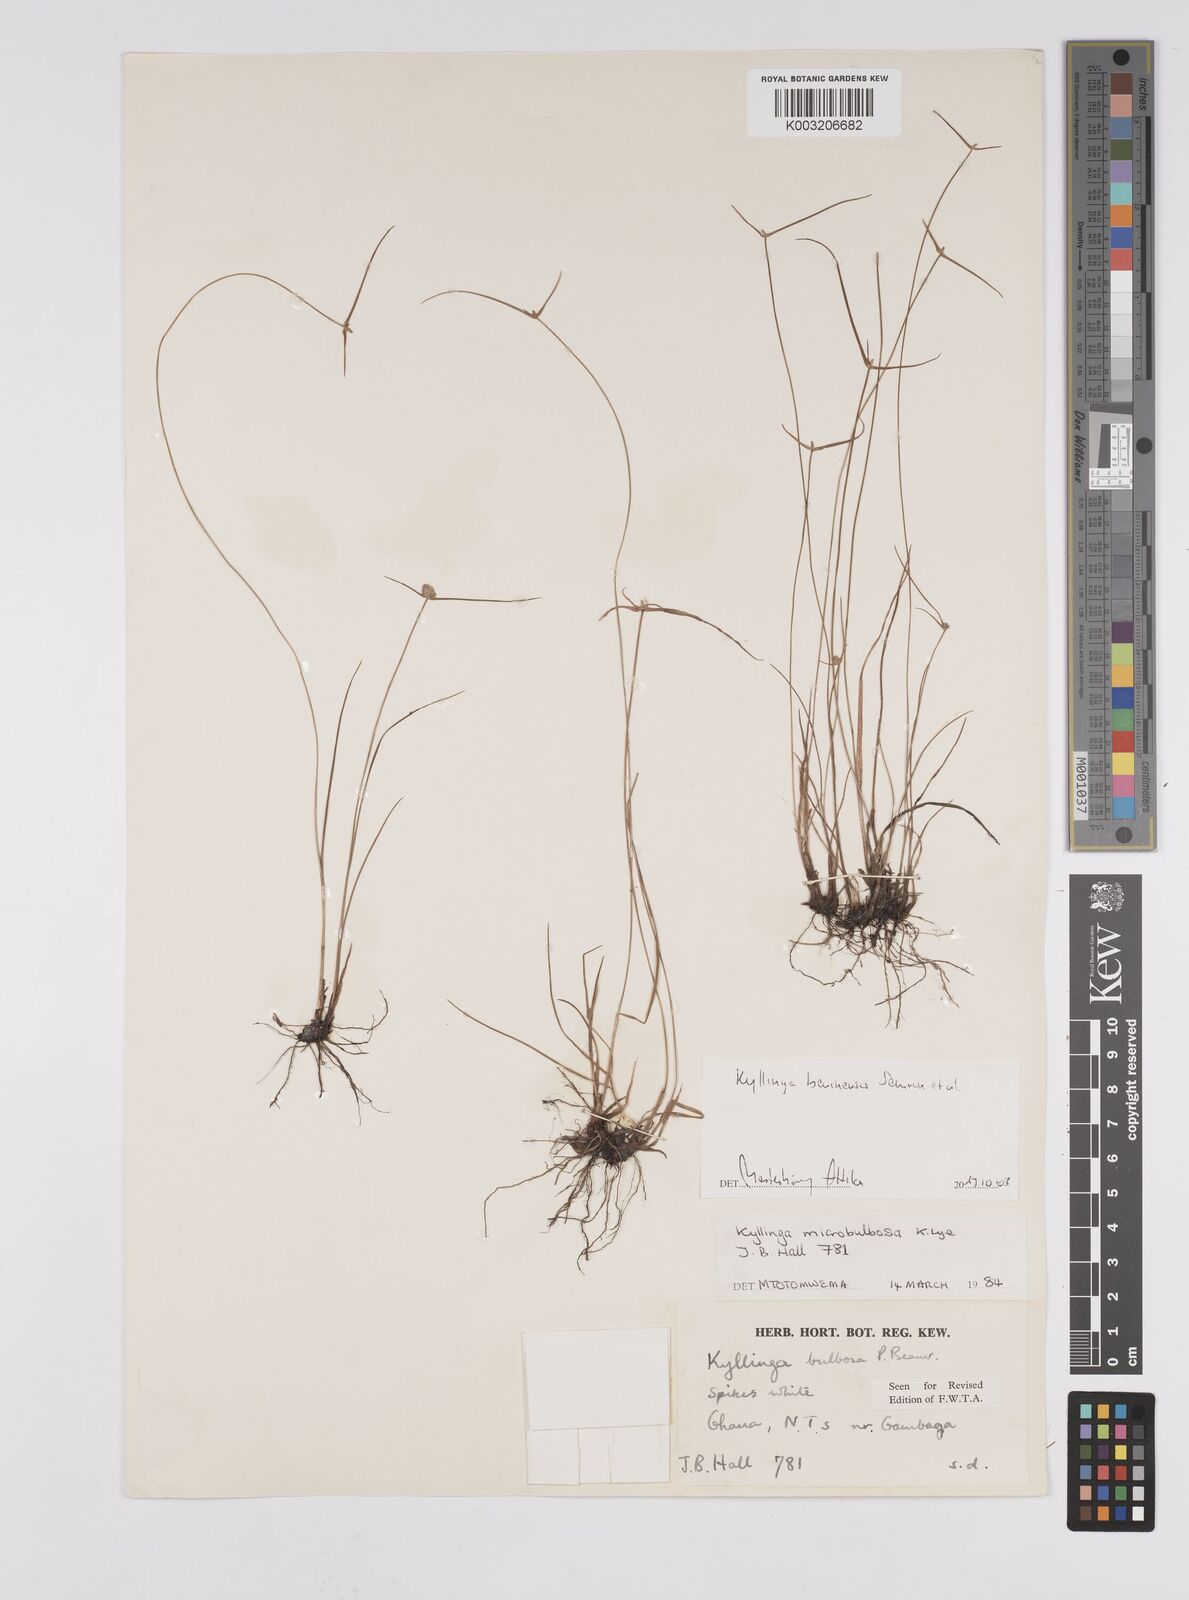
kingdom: Plantae
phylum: Tracheophyta
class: Liliopsida
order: Poales
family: Cyperaceae
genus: Cyperus
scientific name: Cyperus beninensis
